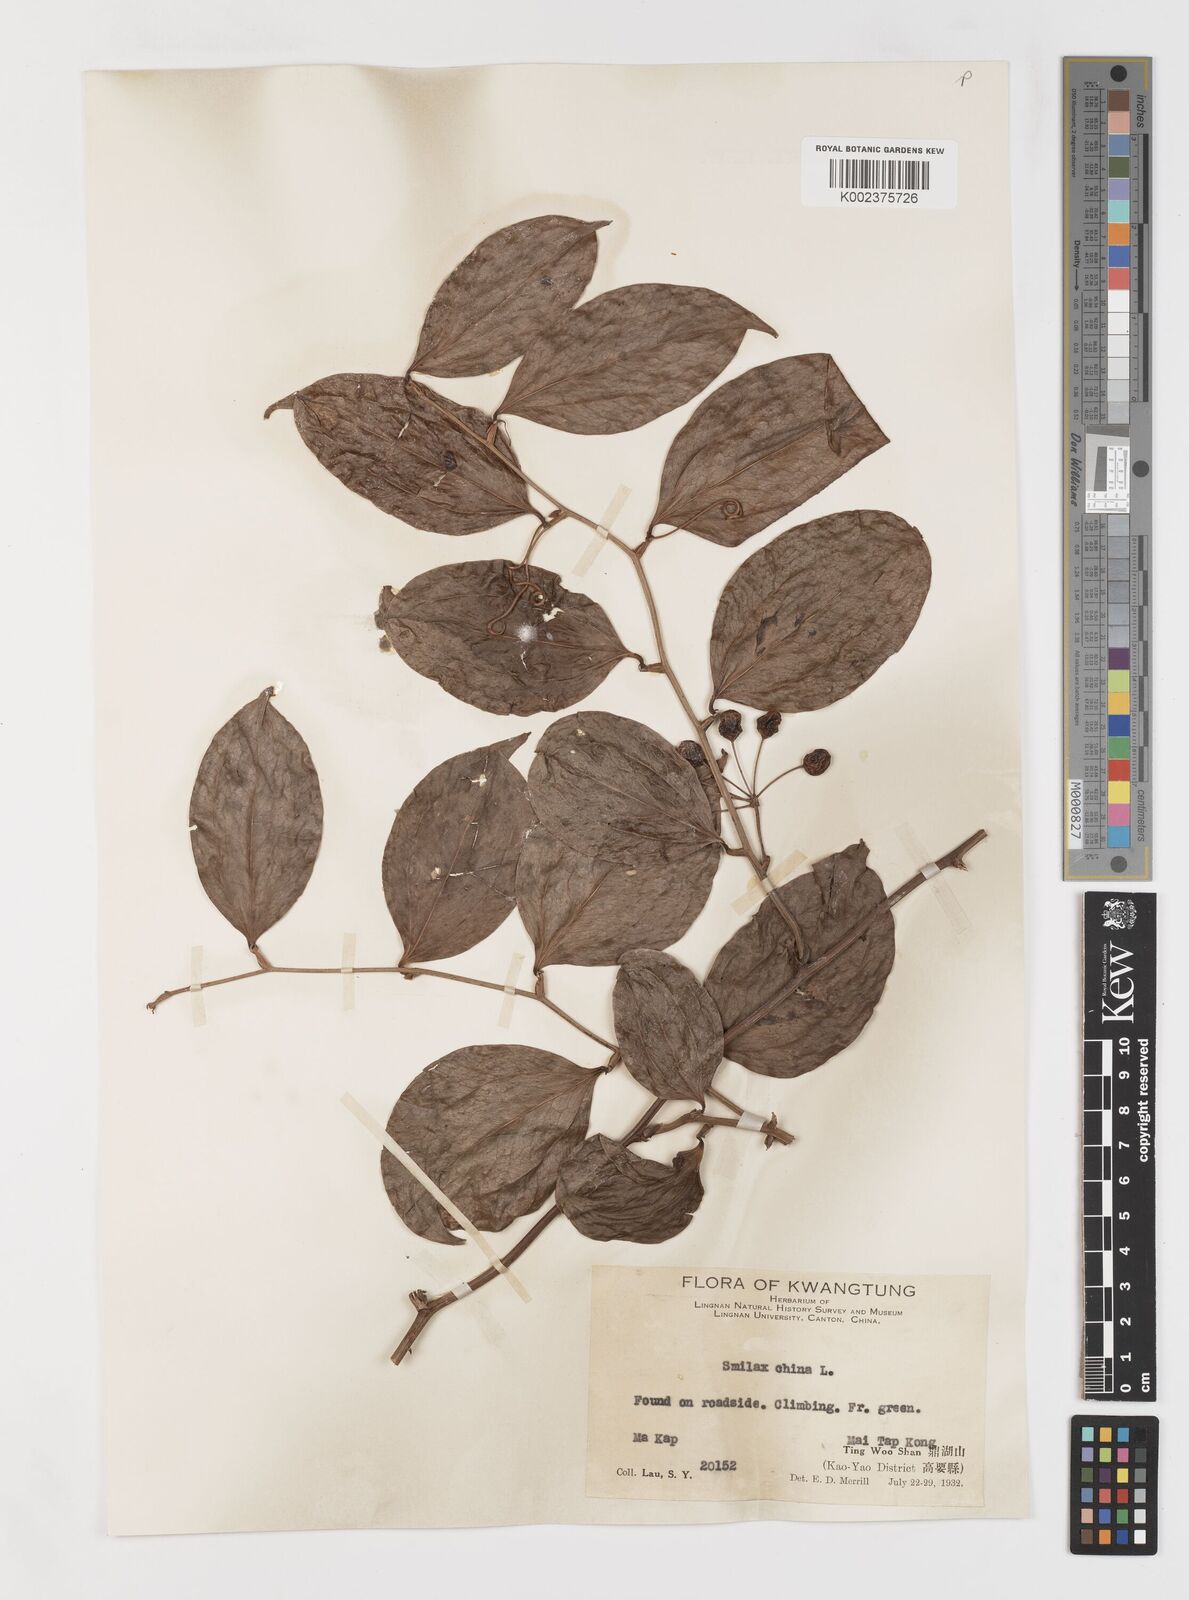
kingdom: Plantae
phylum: Tracheophyta
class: Liliopsida
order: Liliales
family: Smilacaceae
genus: Smilax
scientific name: Smilax
